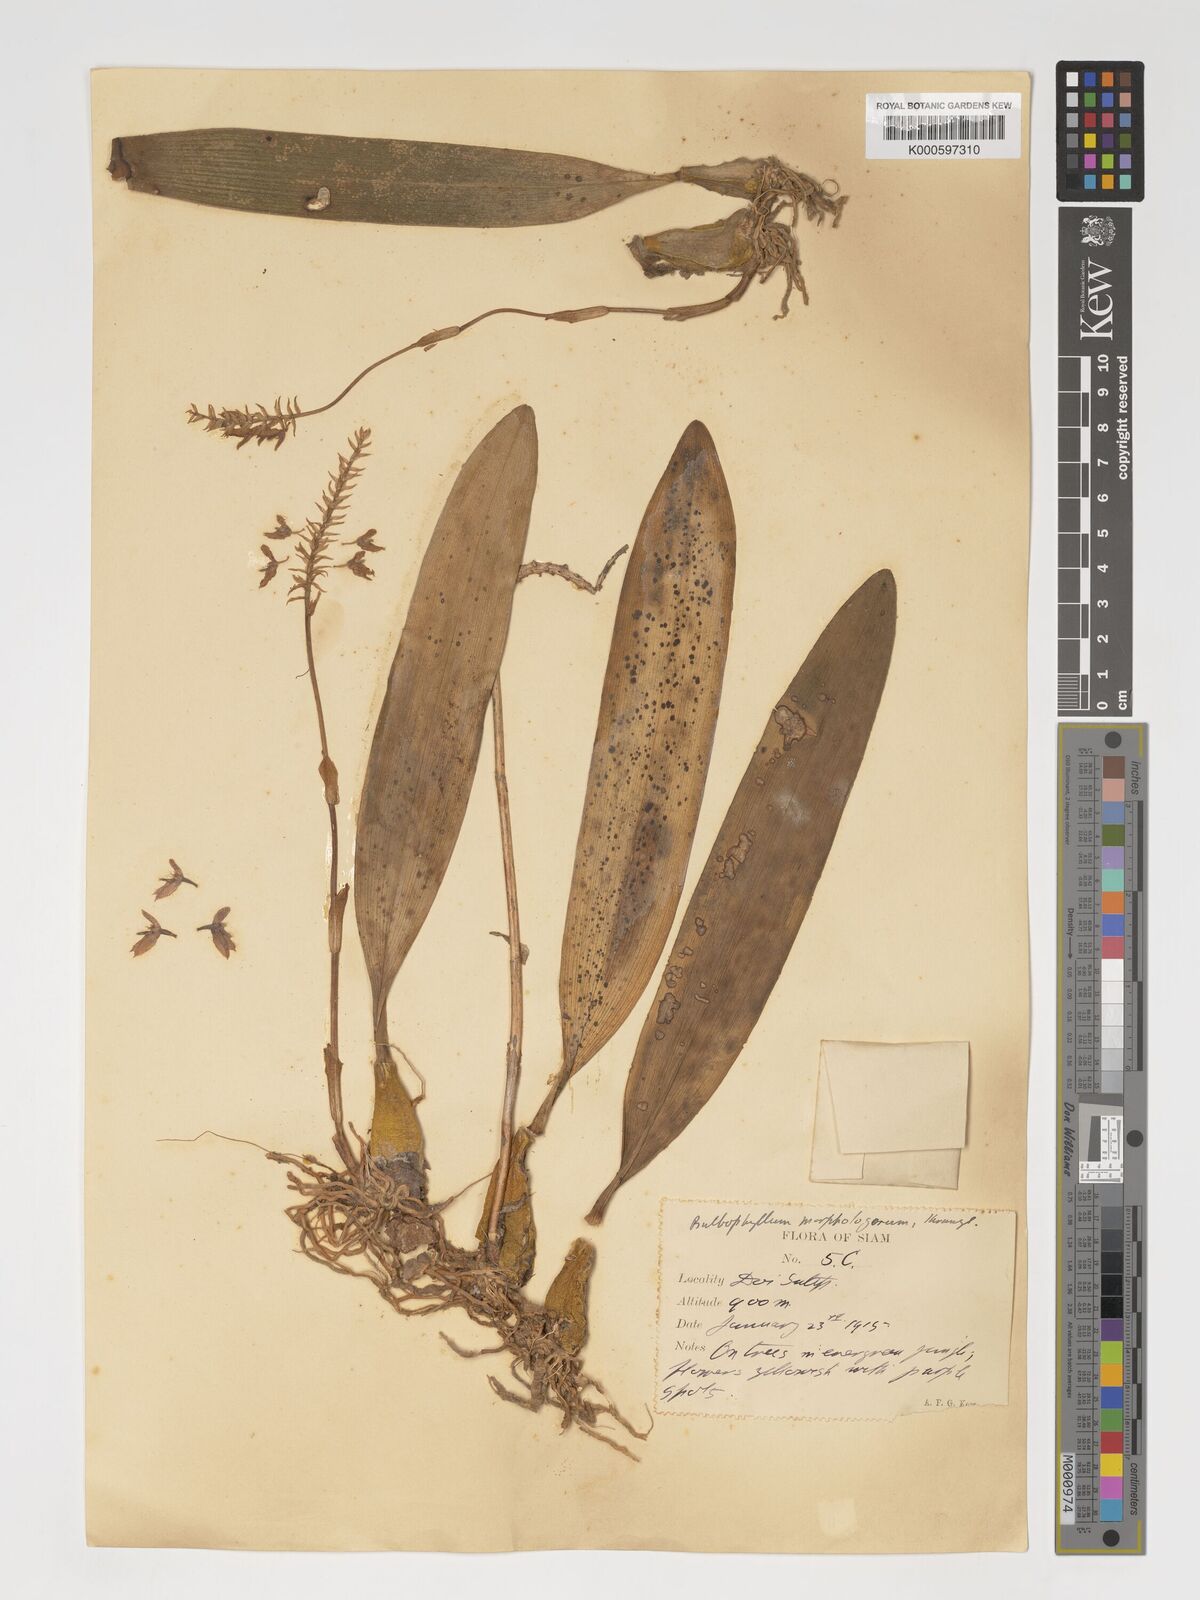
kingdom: Plantae
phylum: Tracheophyta
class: Liliopsida
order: Asparagales
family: Orchidaceae
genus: Bulbophyllum
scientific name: Bulbophyllum morphologorum
